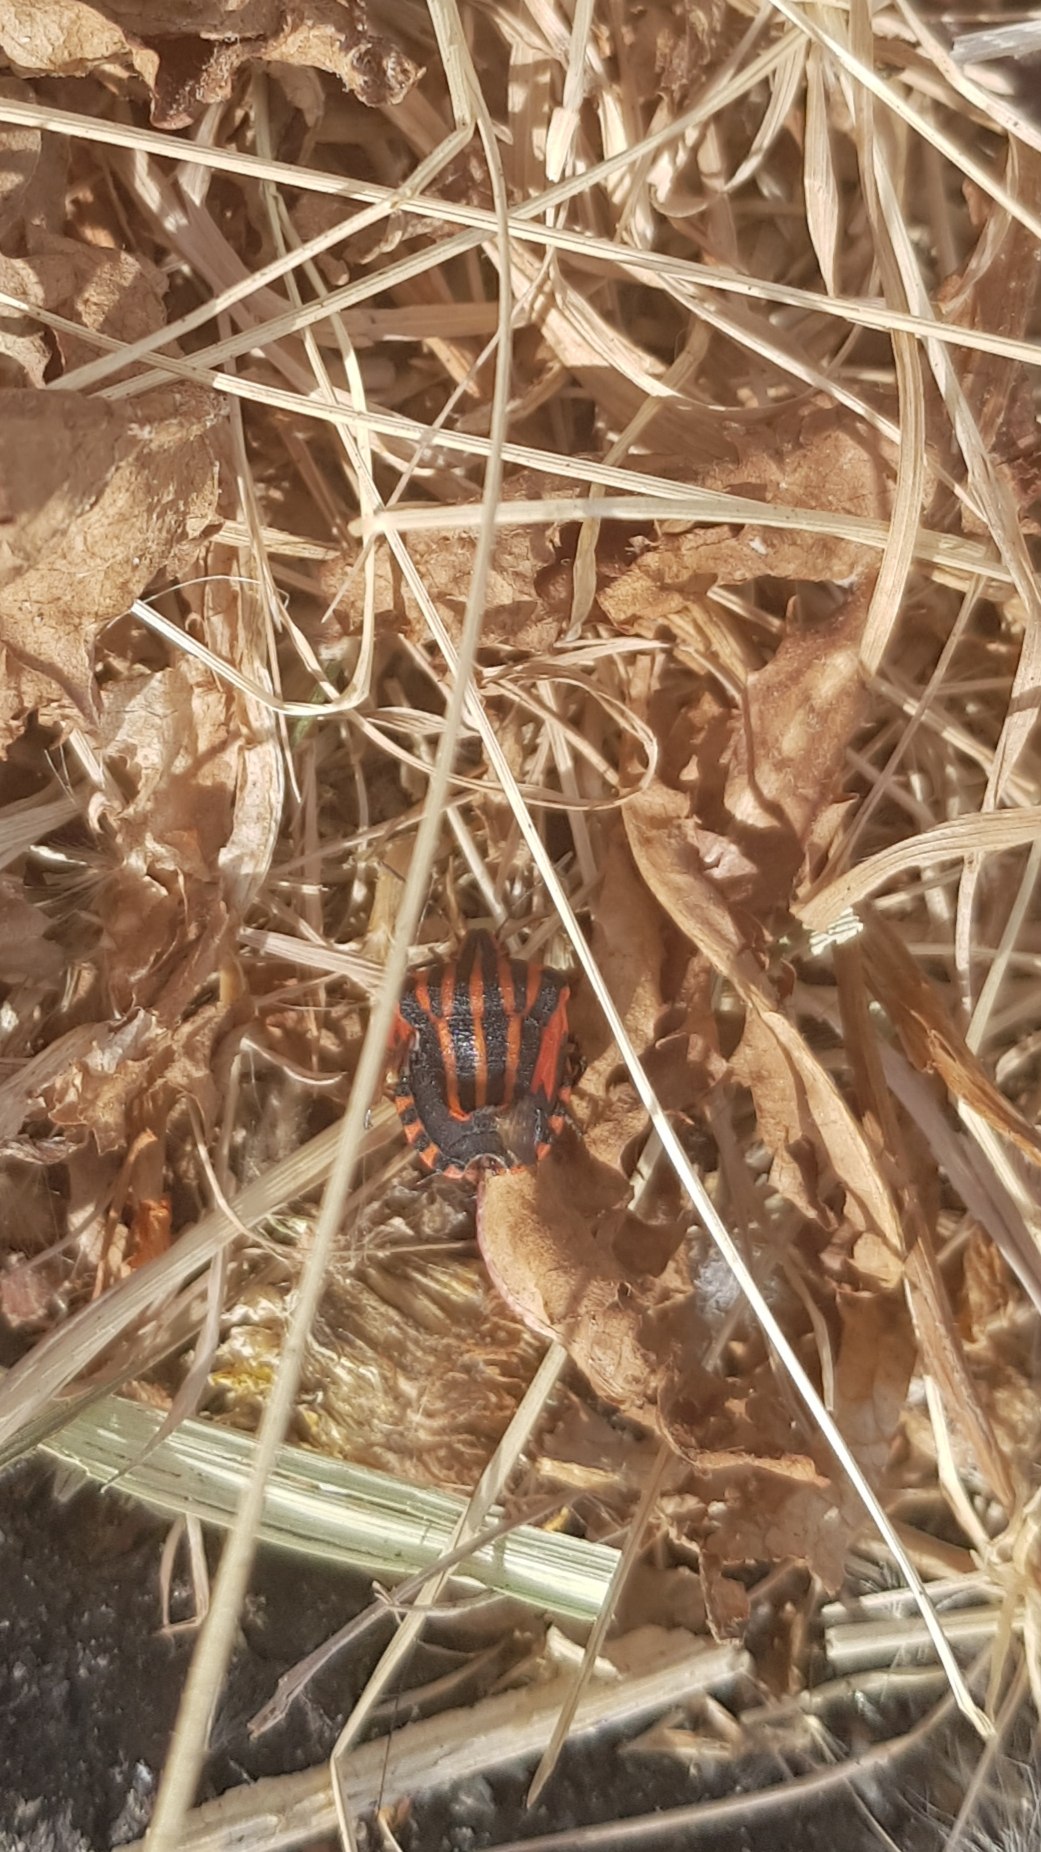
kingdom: Animalia
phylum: Arthropoda
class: Insecta
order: Hemiptera
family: Pentatomidae
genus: Graphosoma
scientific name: Graphosoma italicum
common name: Stribetæge
